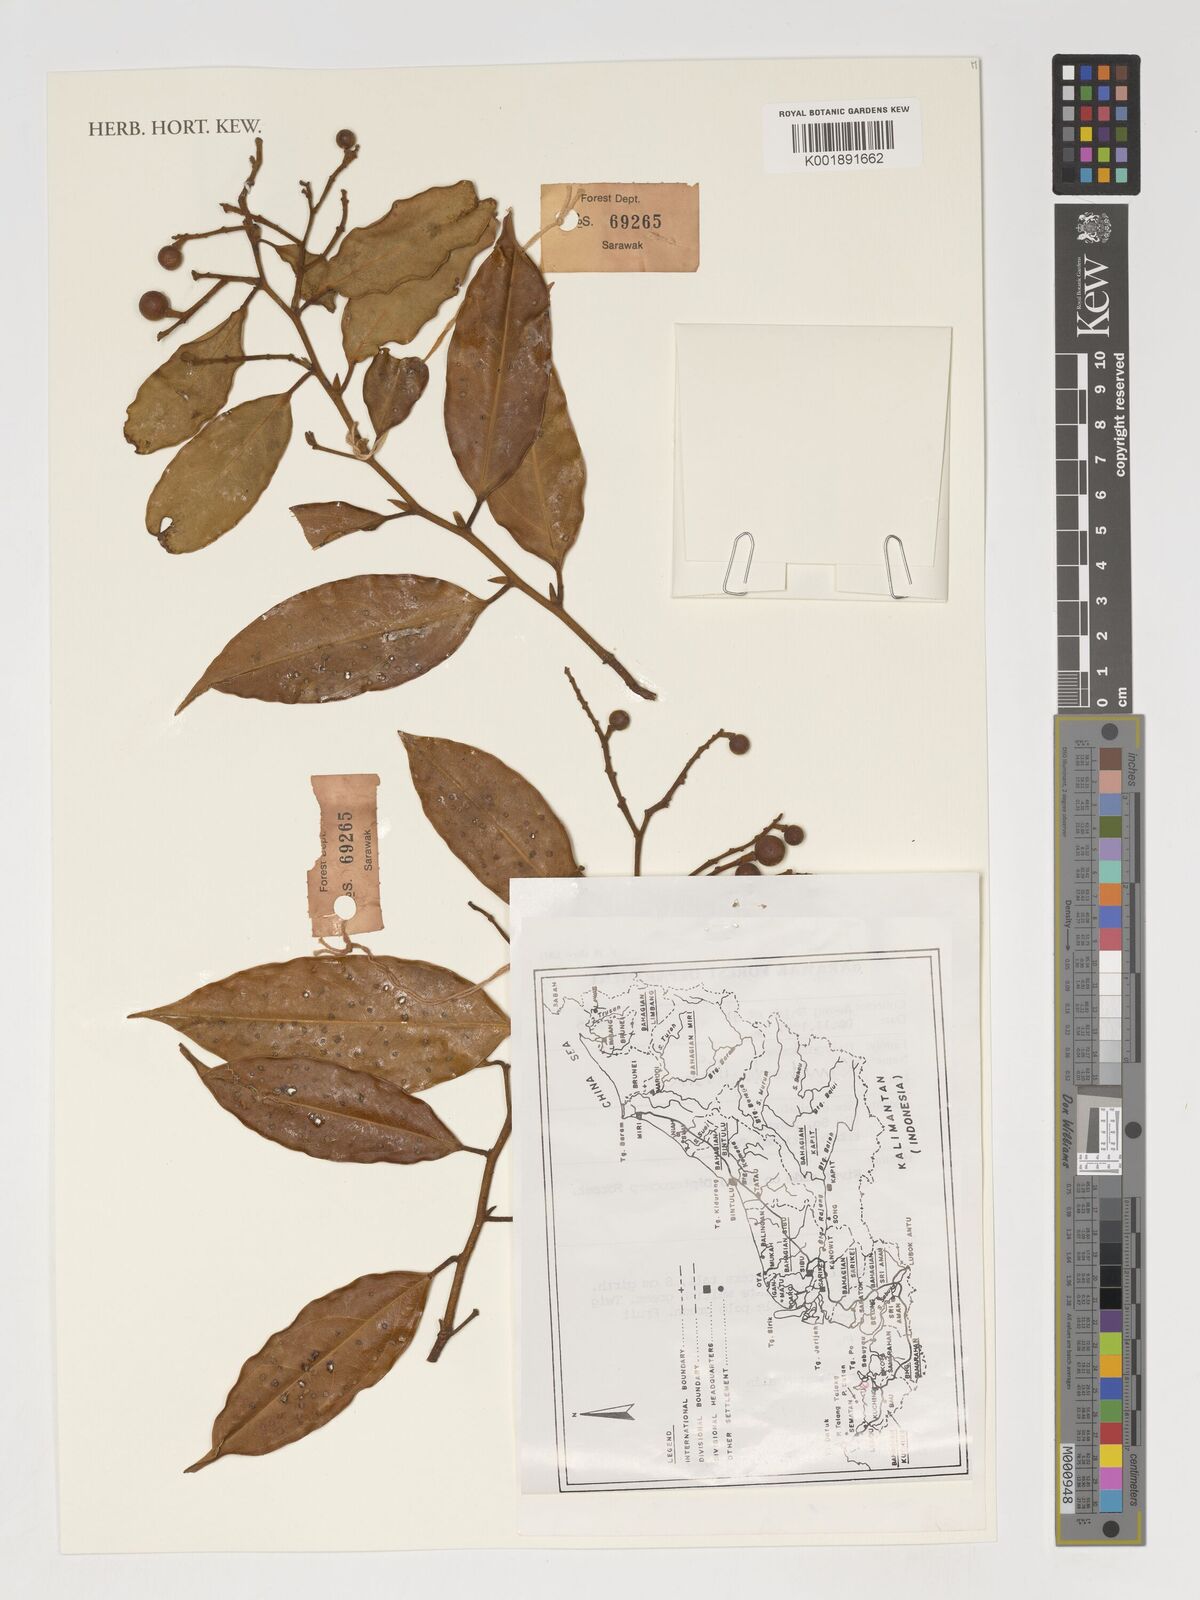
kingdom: Plantae
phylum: Tracheophyta
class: Magnoliopsida
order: Fabales
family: Polygalaceae
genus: Xanthophyllum
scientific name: Xanthophyllum
